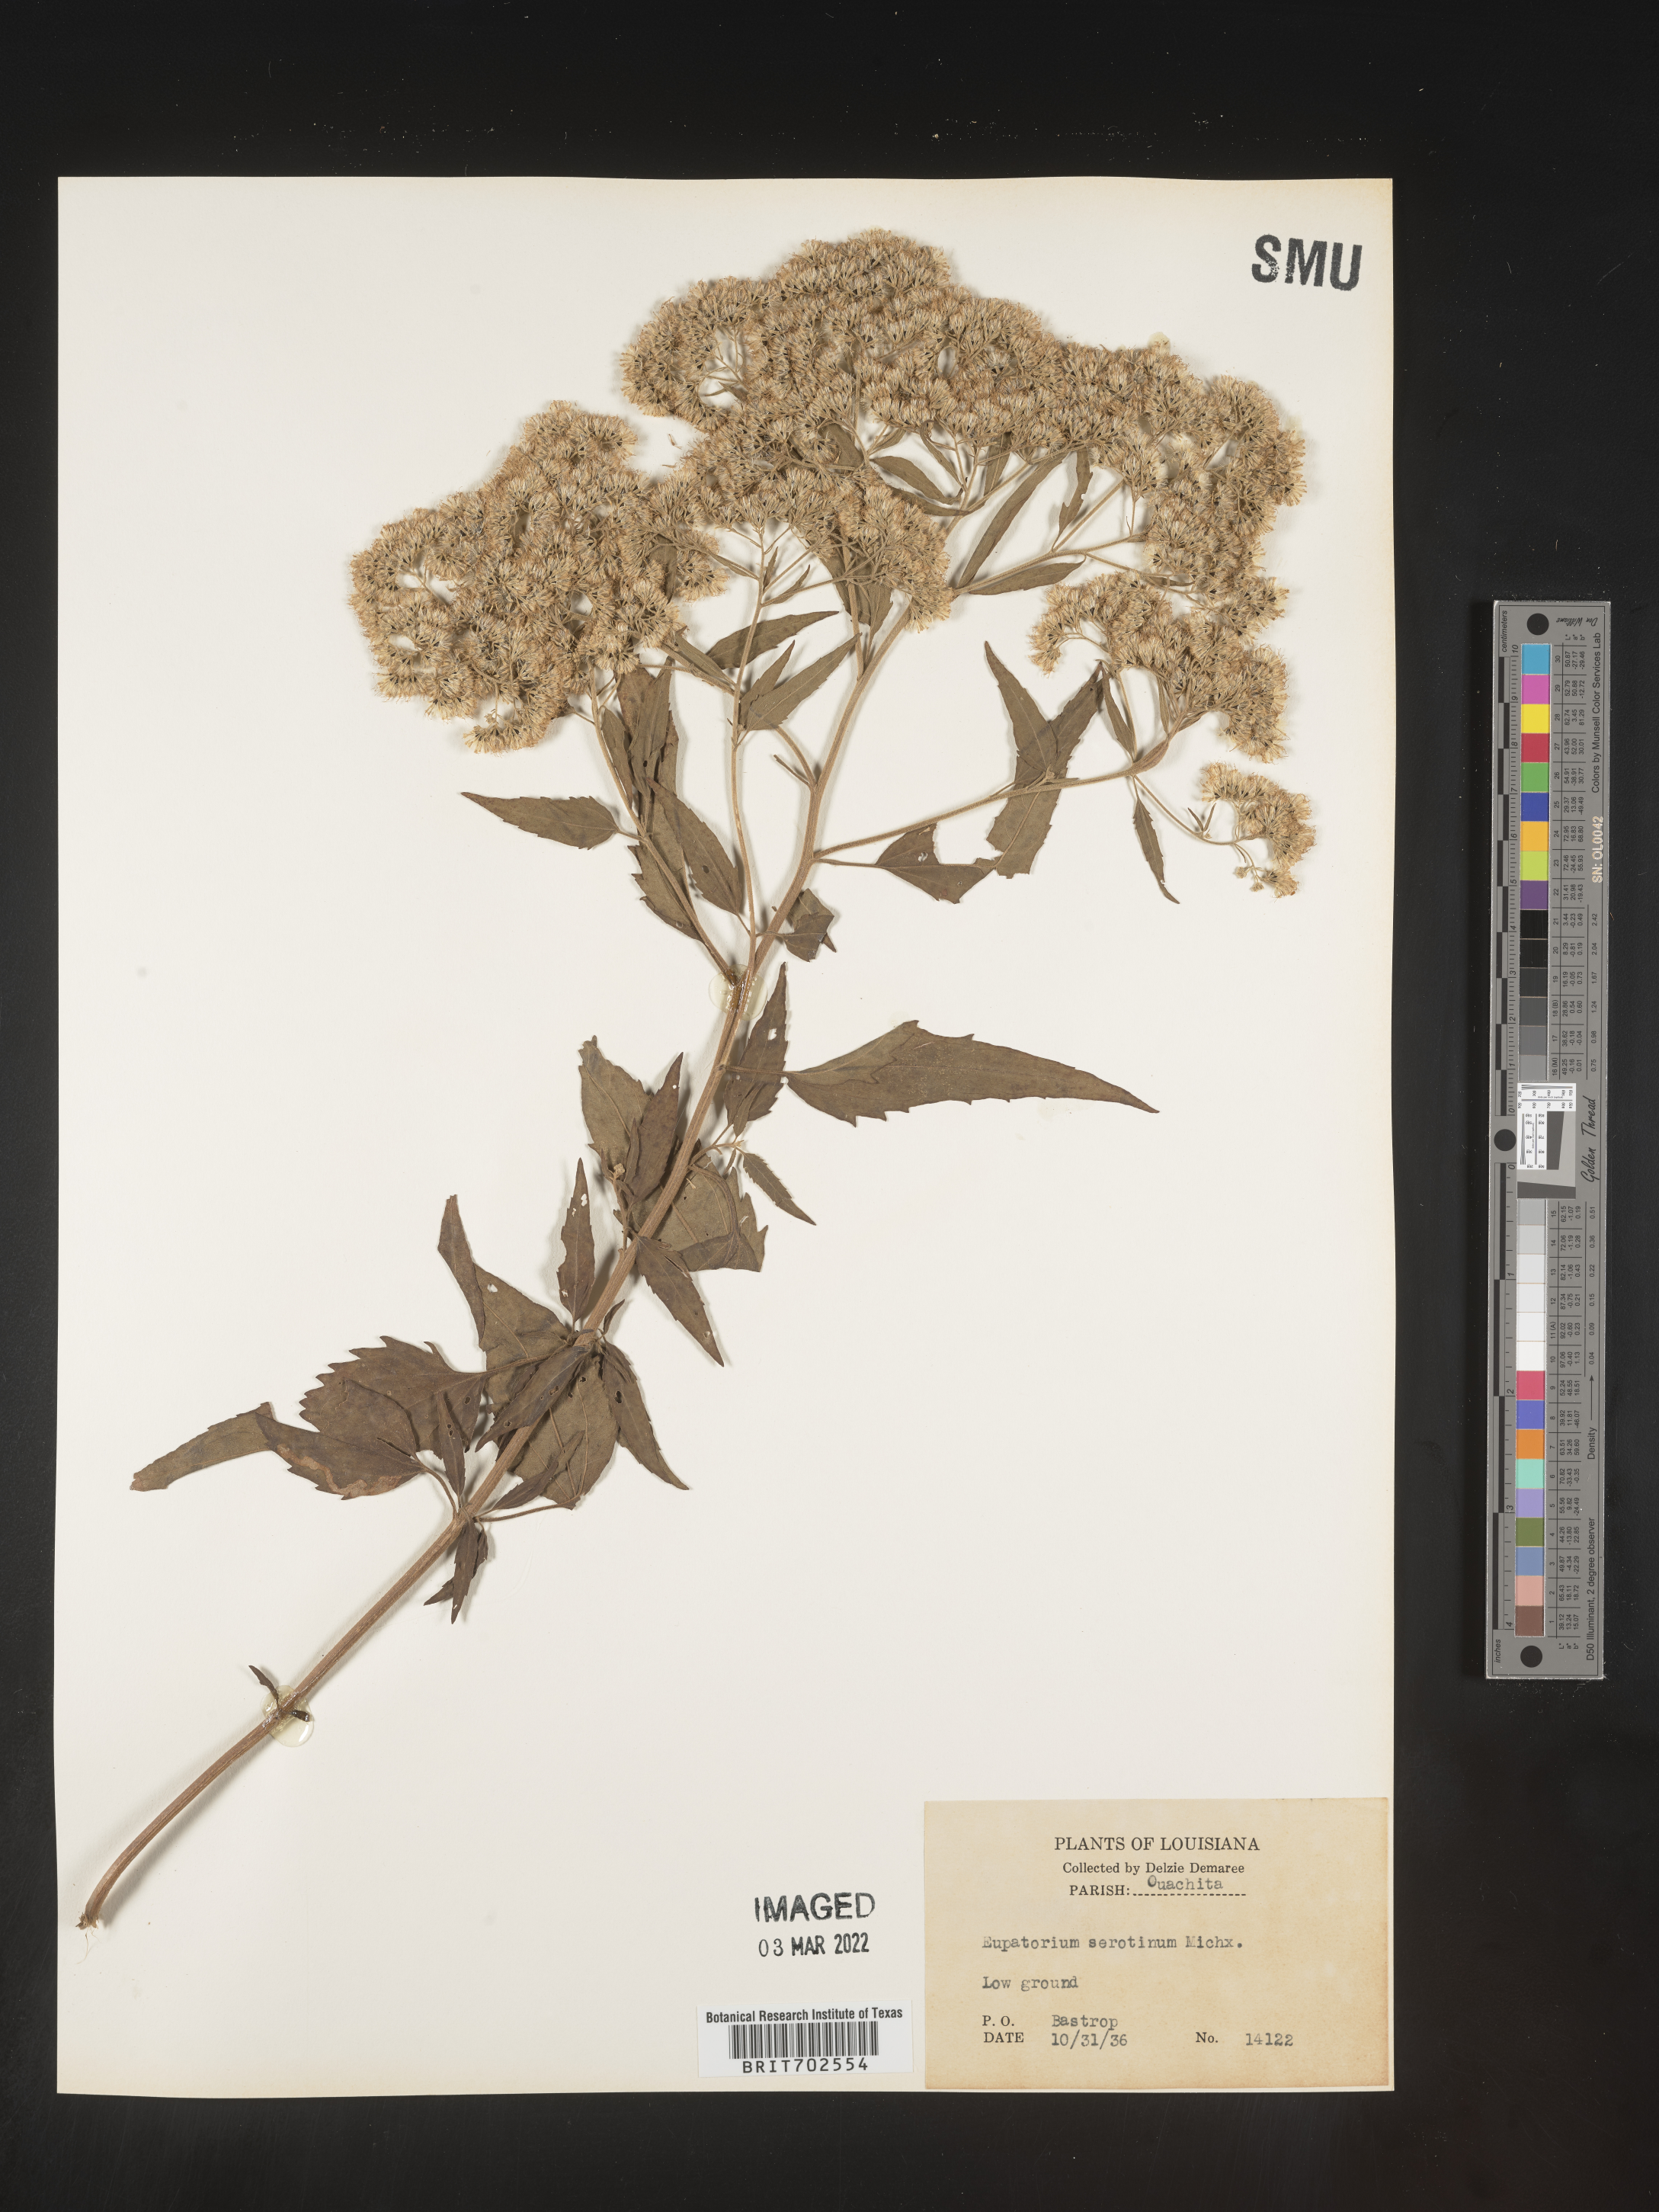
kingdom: Plantae
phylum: Tracheophyta
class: Magnoliopsida
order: Asterales
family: Asteraceae
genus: Eupatorium
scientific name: Eupatorium serotinum
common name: Late boneset
